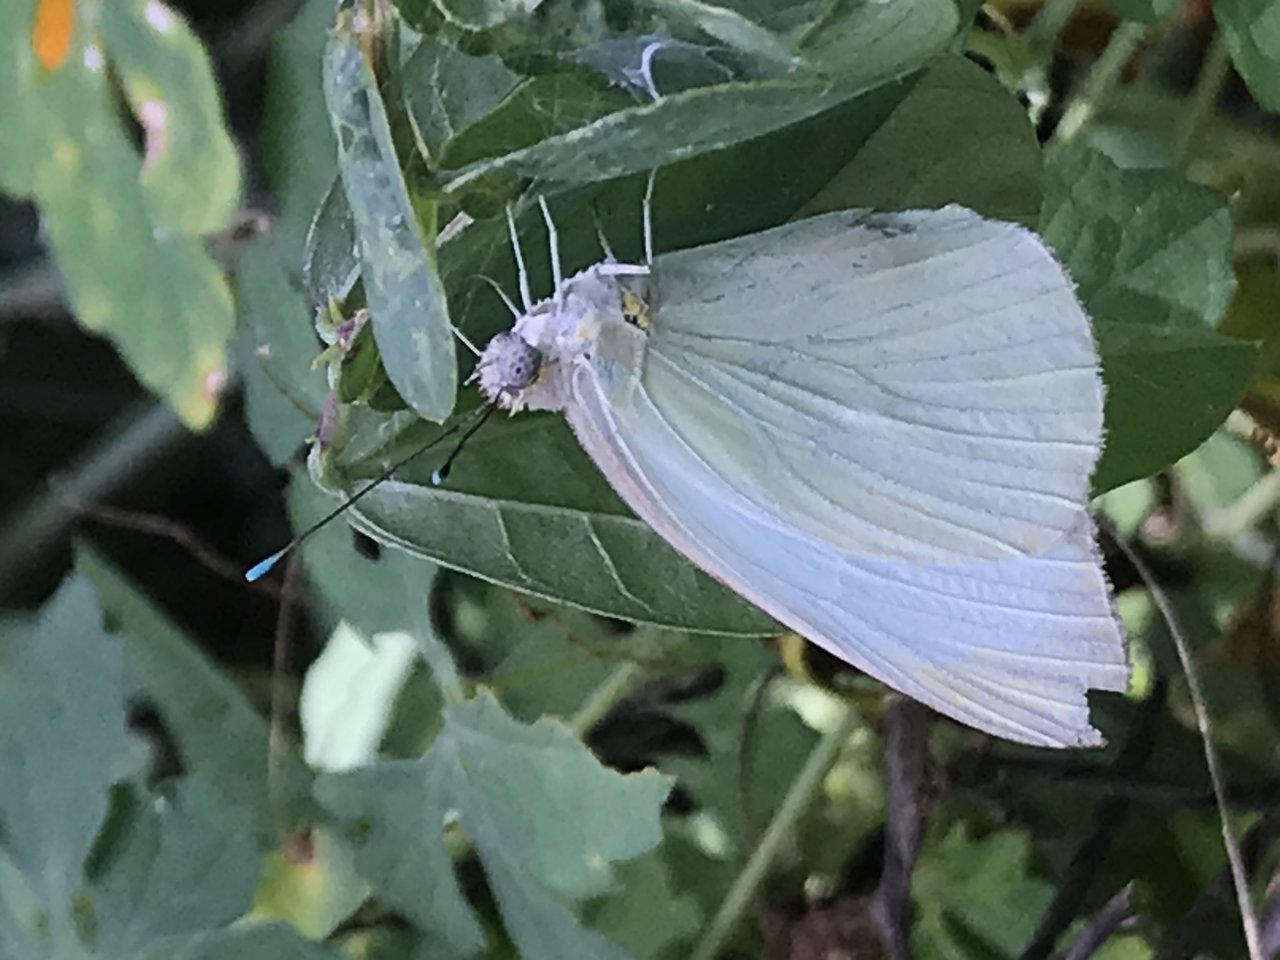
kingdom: Animalia
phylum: Arthropoda
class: Insecta
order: Lepidoptera
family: Pieridae
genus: Ascia
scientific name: Ascia monuste
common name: Great Southern White
